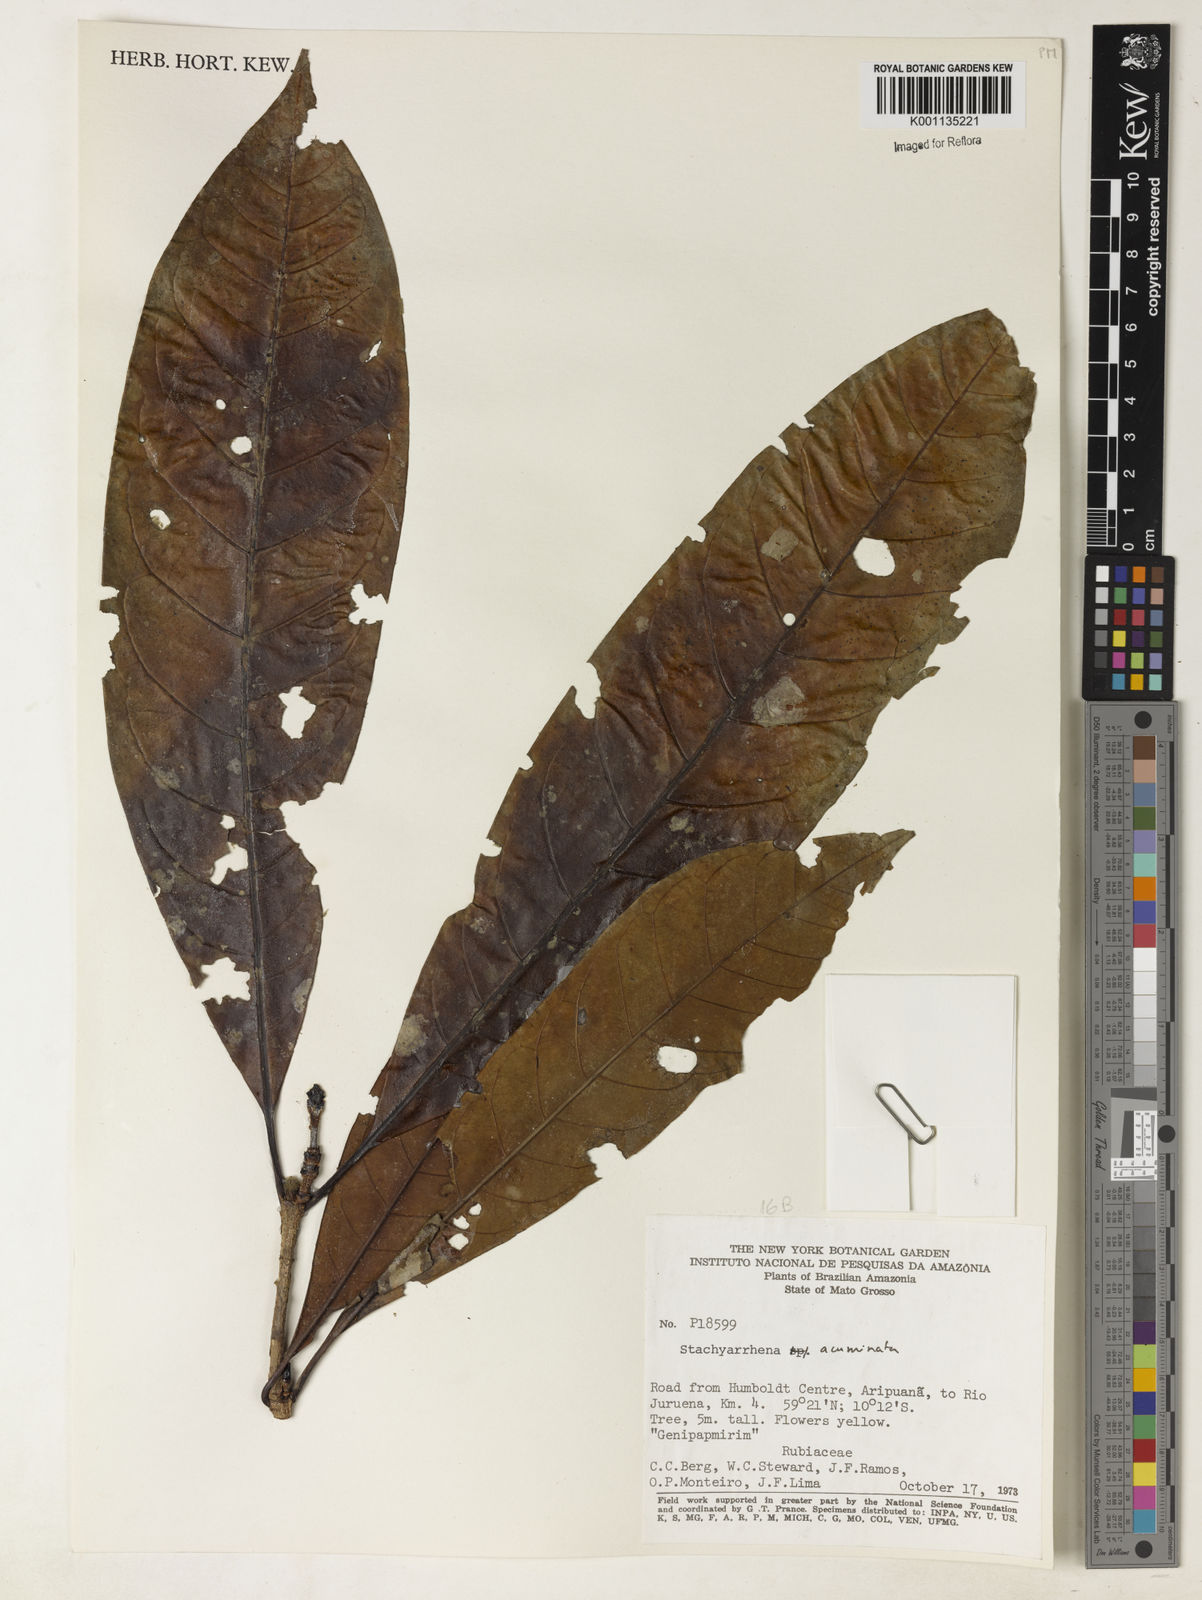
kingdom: Plantae
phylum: Tracheophyta
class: Magnoliopsida
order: Gentianales
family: Rubiaceae
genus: Stachyarrhena
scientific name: Stachyarrhena acuminata
